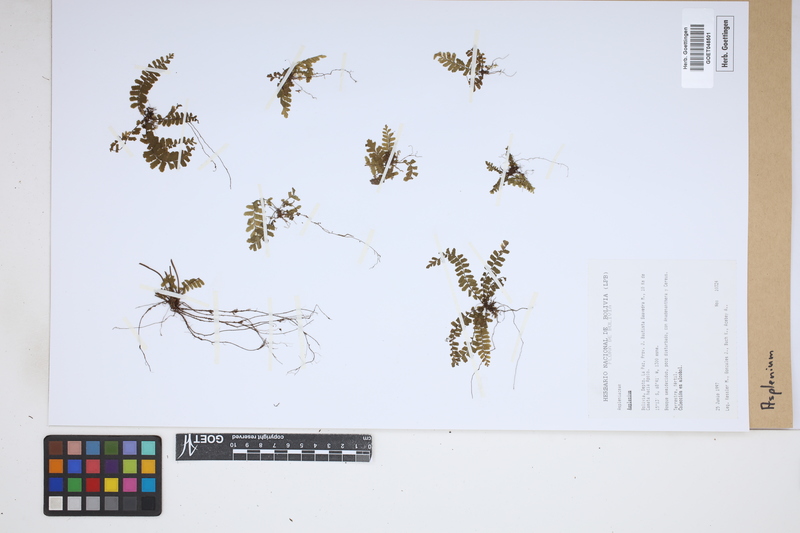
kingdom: Plantae
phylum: Tracheophyta
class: Polypodiopsida
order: Polypodiales
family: Aspleniaceae
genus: Asplenium
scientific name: Asplenium
